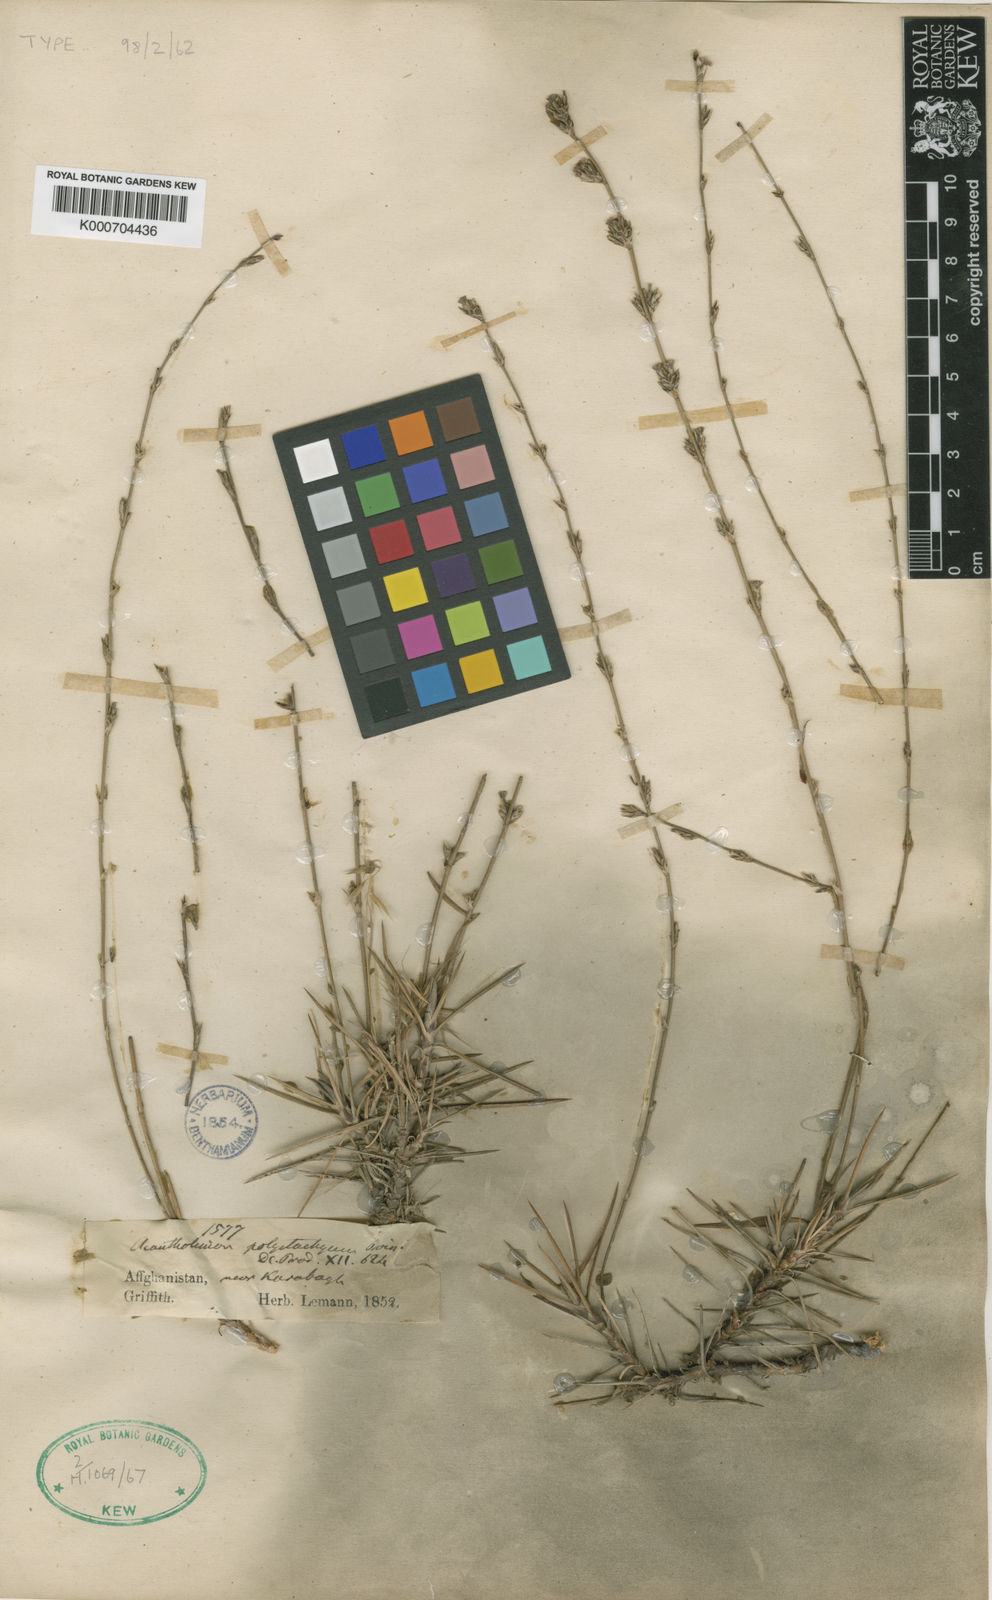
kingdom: Plantae
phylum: Tracheophyta
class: Magnoliopsida
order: Caryophyllales
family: Plumbaginaceae
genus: Acantholimon
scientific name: Acantholimon polystachyum
